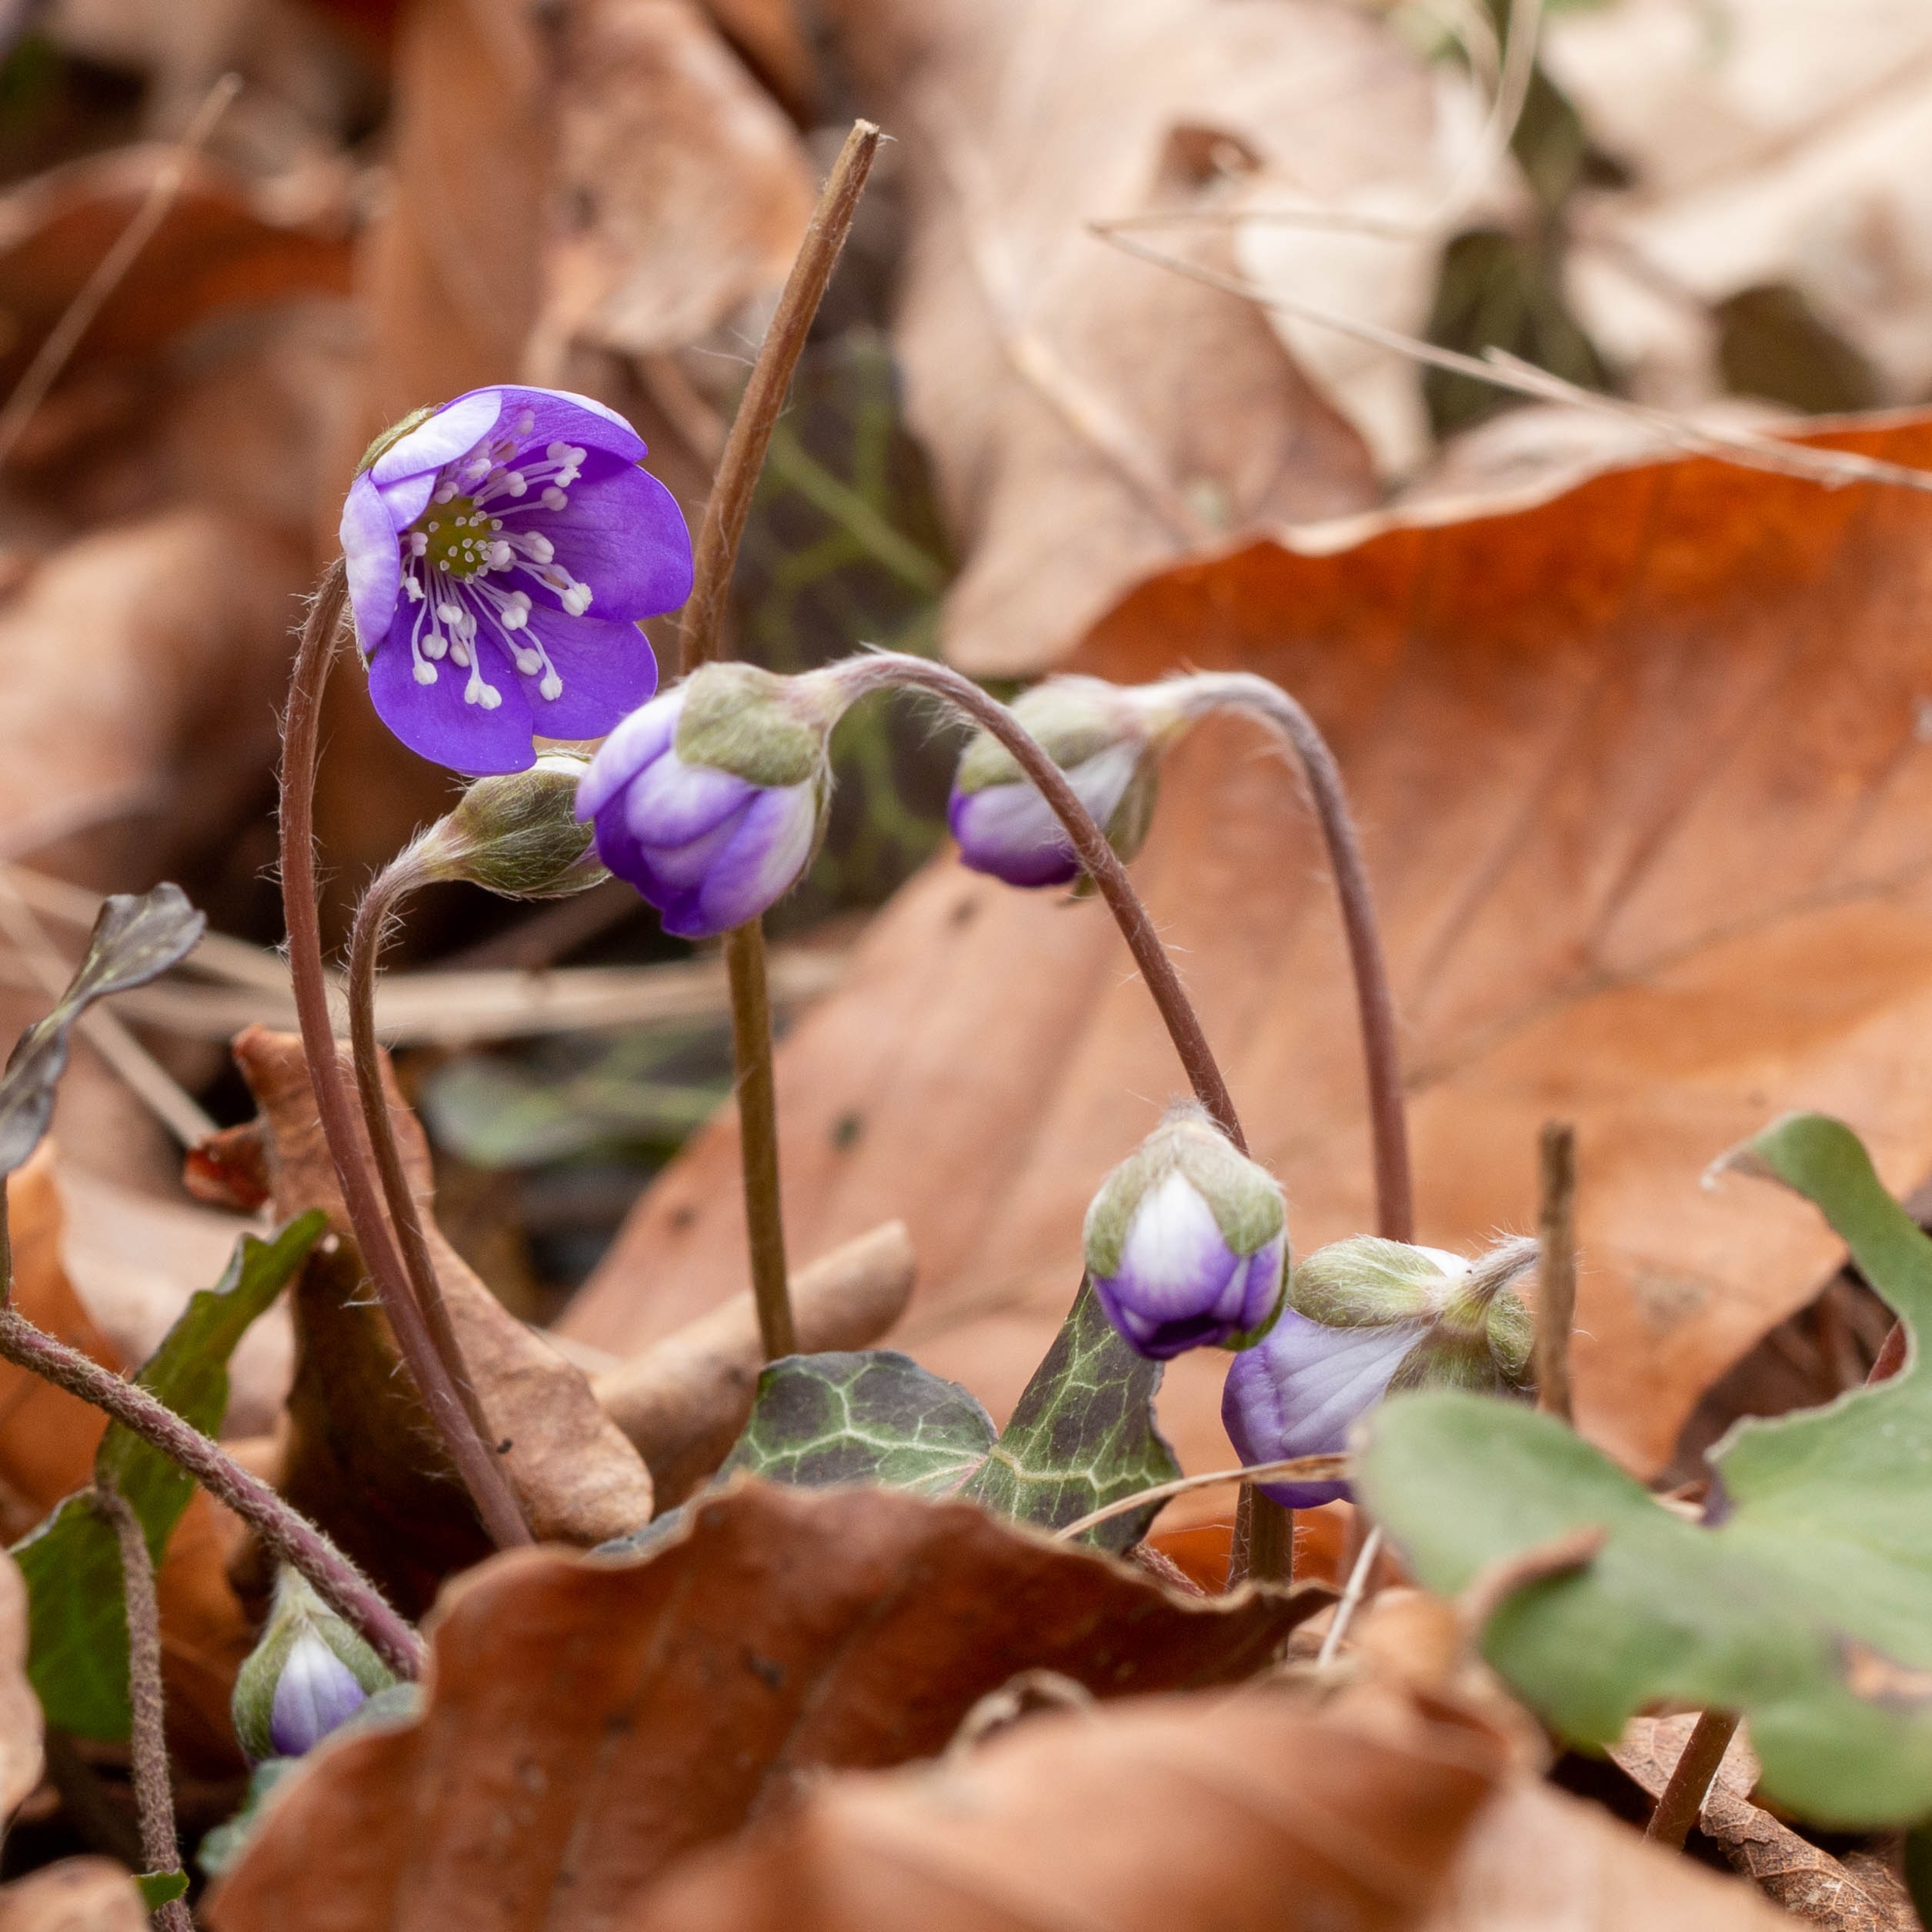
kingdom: Plantae
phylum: Tracheophyta
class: Magnoliopsida
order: Ranunculales
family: Ranunculaceae
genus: Hepatica
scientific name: Hepatica nobilis
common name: Blå anemone
